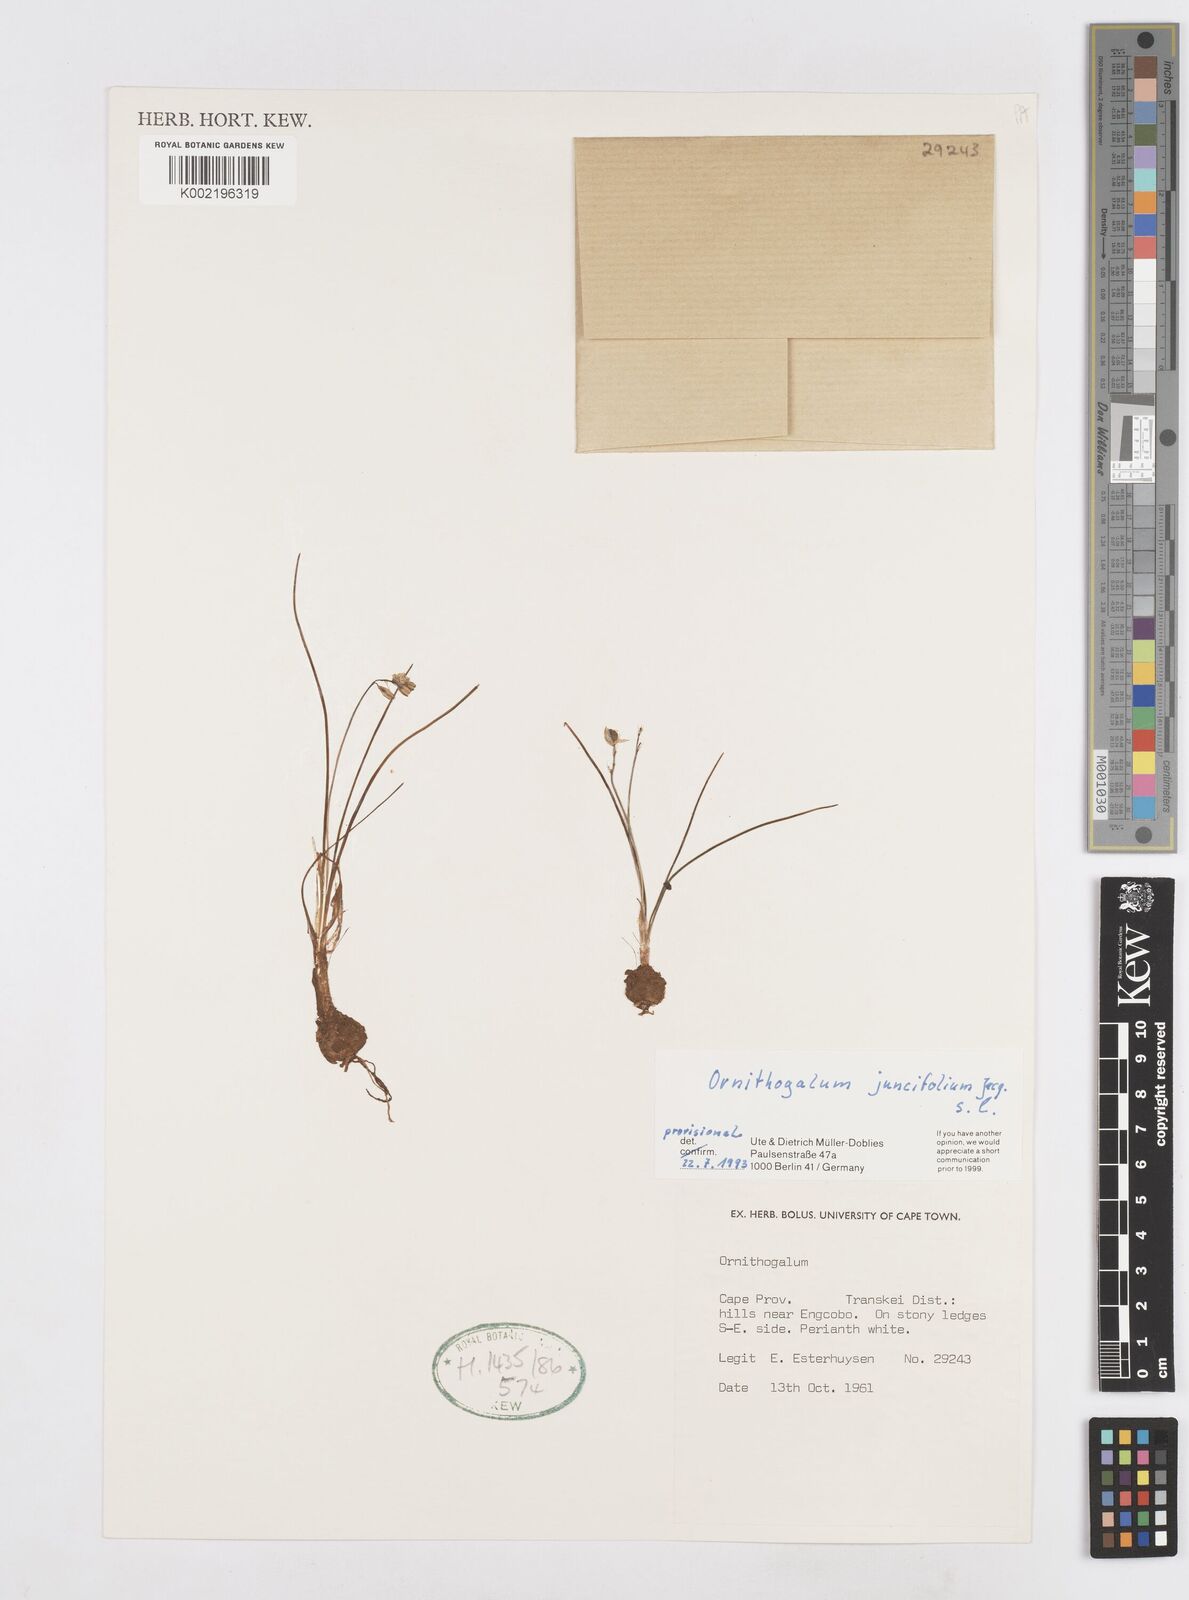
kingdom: Plantae
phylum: Tracheophyta
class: Liliopsida
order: Asparagales
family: Asparagaceae
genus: Ornithogalum
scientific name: Ornithogalum juncifolium
